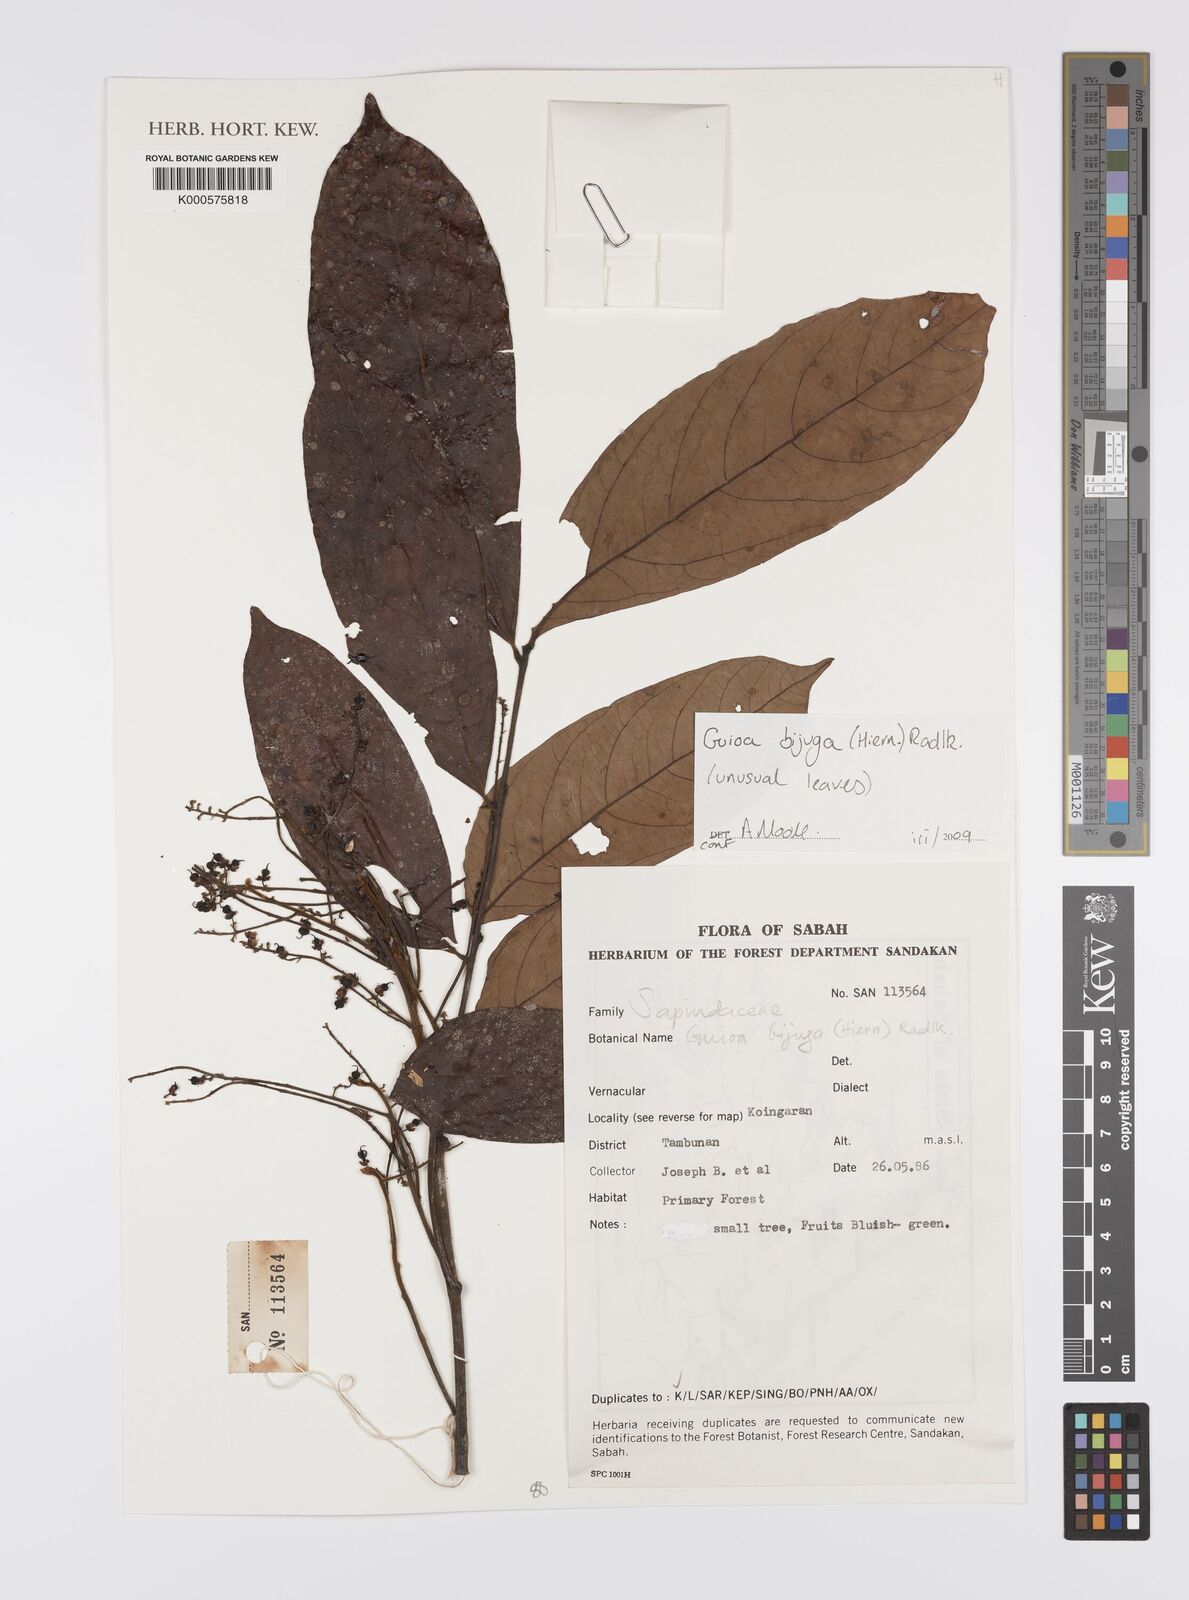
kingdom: Plantae
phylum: Tracheophyta
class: Magnoliopsida
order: Sapindales
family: Sapindaceae
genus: Guioa
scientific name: Guioa bijuga
